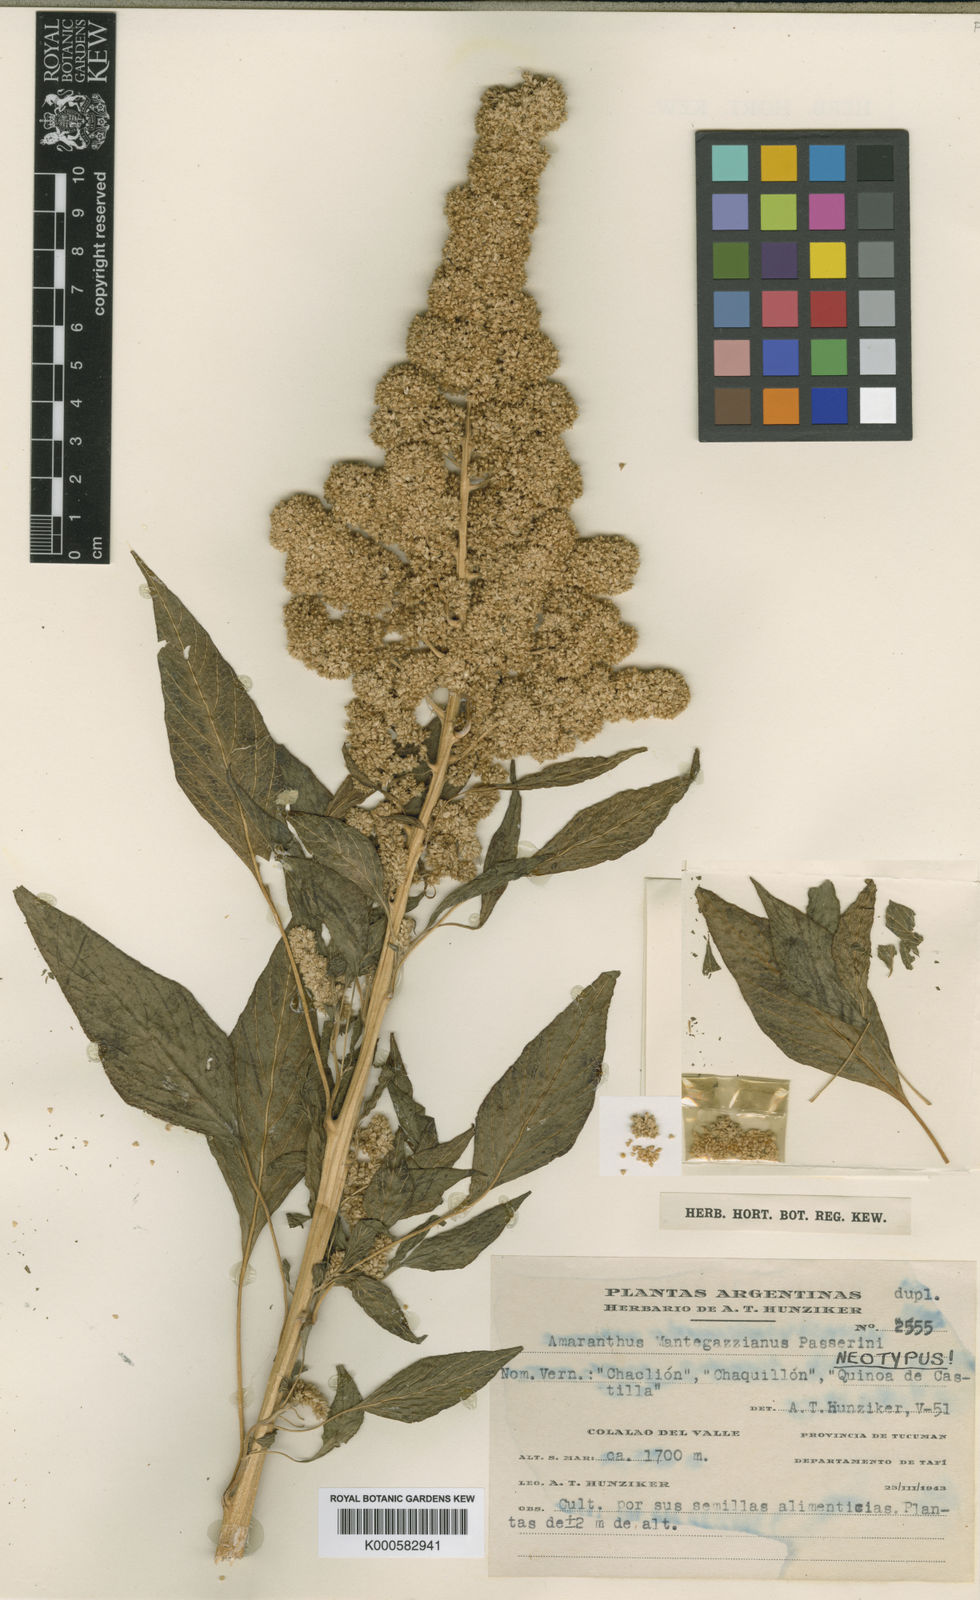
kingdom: Plantae
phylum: Tracheophyta
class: Magnoliopsida
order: Caryophyllales
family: Amaranthaceae
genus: Amaranthus
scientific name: Amaranthus caudatus
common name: Love-lies-bleeding
